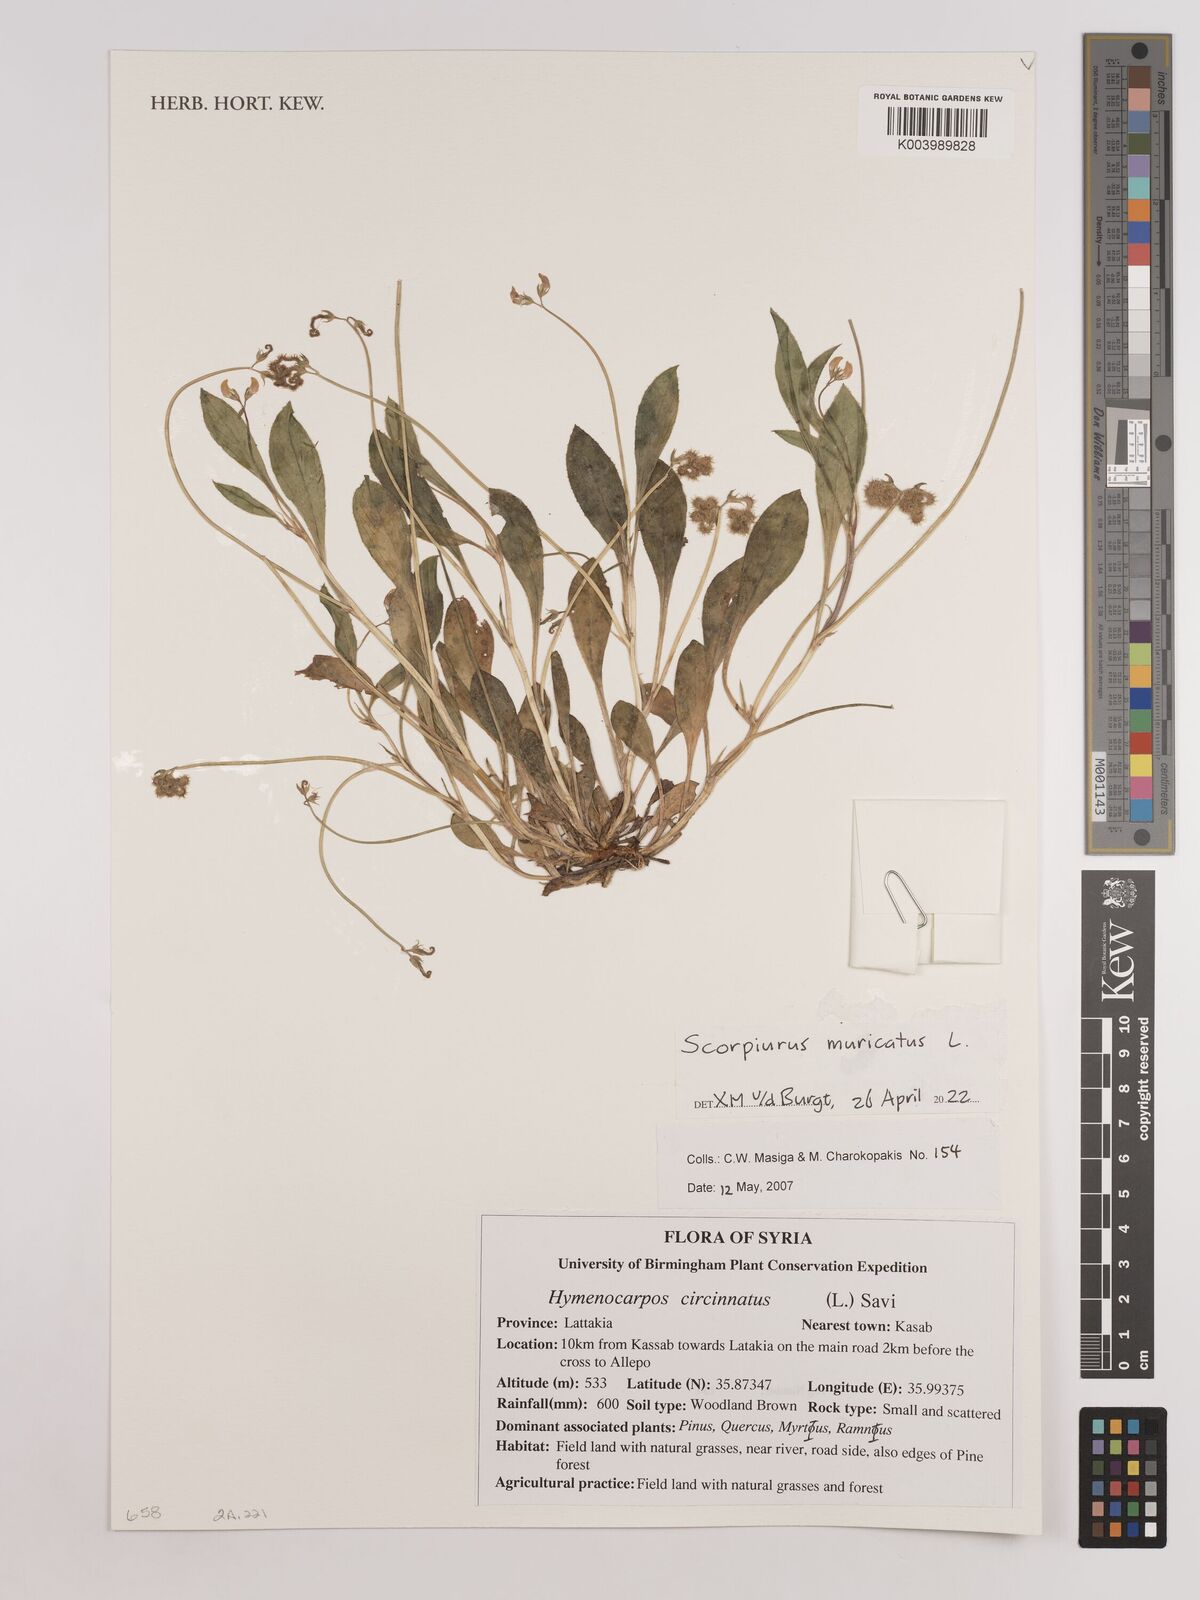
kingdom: Plantae
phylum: Tracheophyta
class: Magnoliopsida
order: Fabales
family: Fabaceae
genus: Scorpiurus
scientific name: Scorpiurus muricatus
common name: Caterpillar-plant
